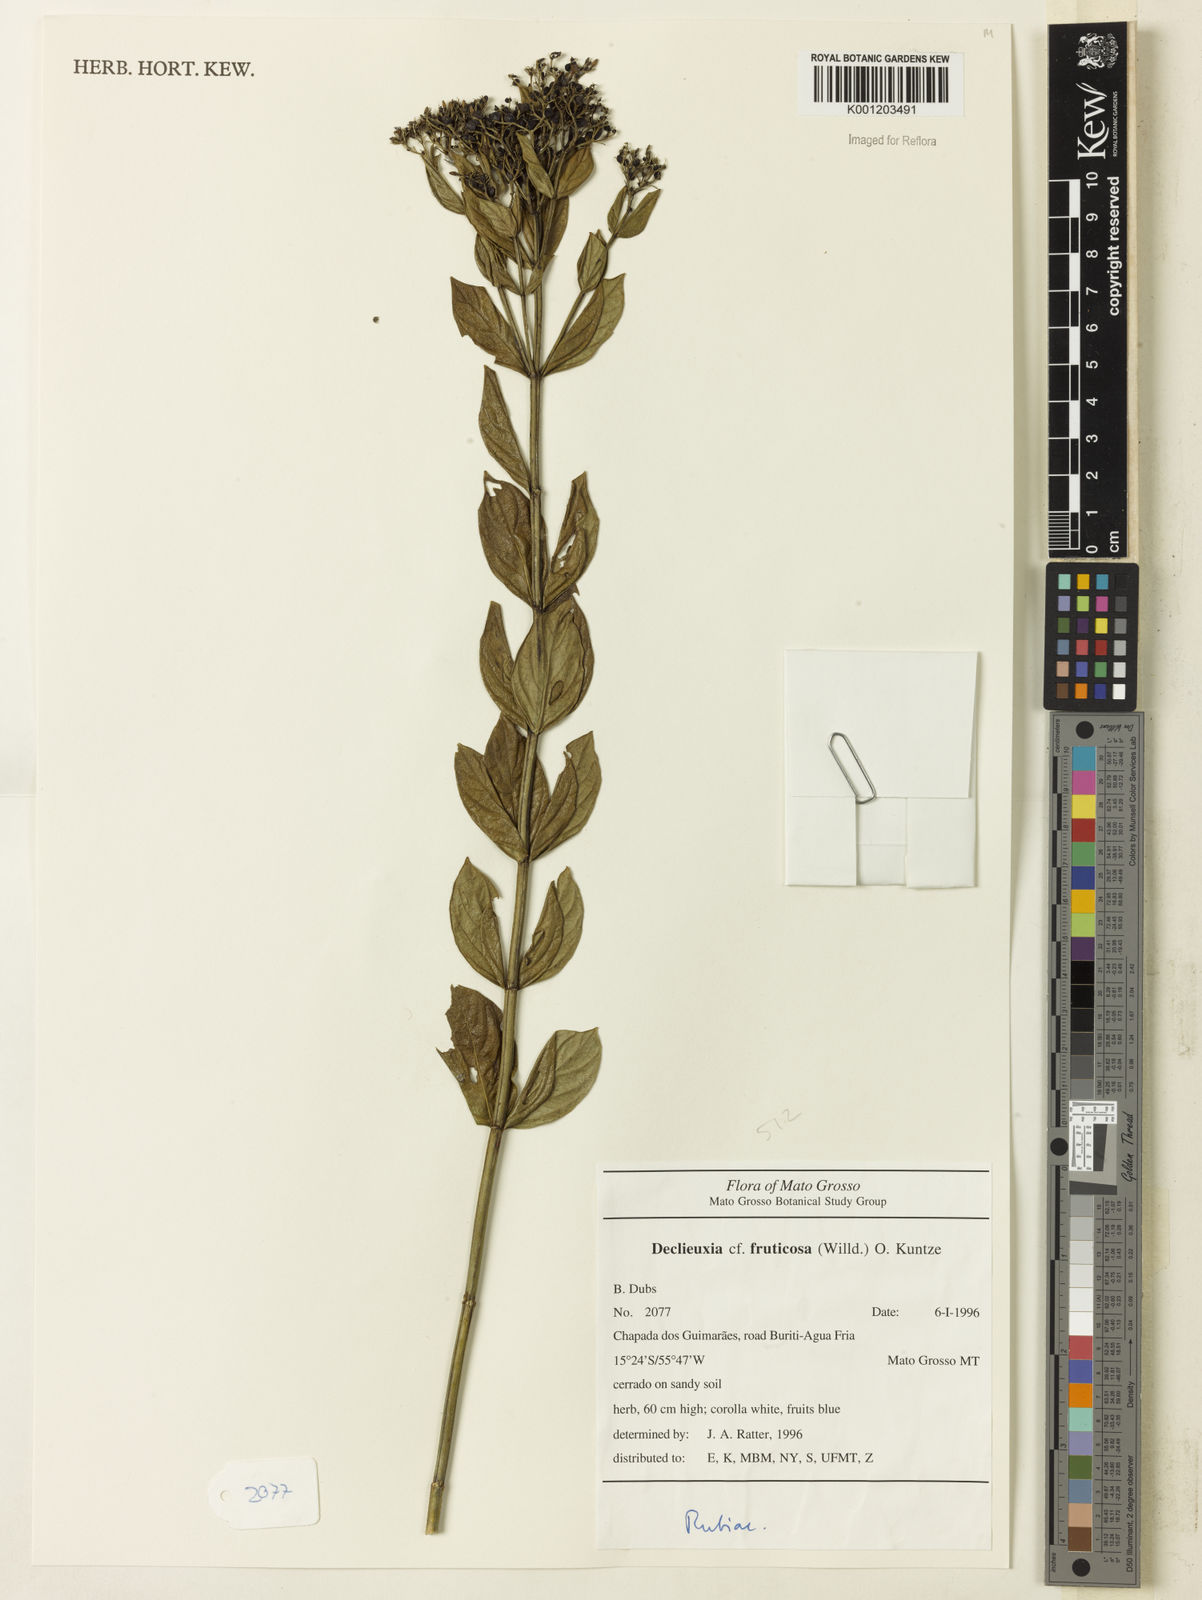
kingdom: Plantae
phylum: Tracheophyta
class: Magnoliopsida
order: Gentianales
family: Rubiaceae
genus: Declieuxia
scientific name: Declieuxia fruticosa
